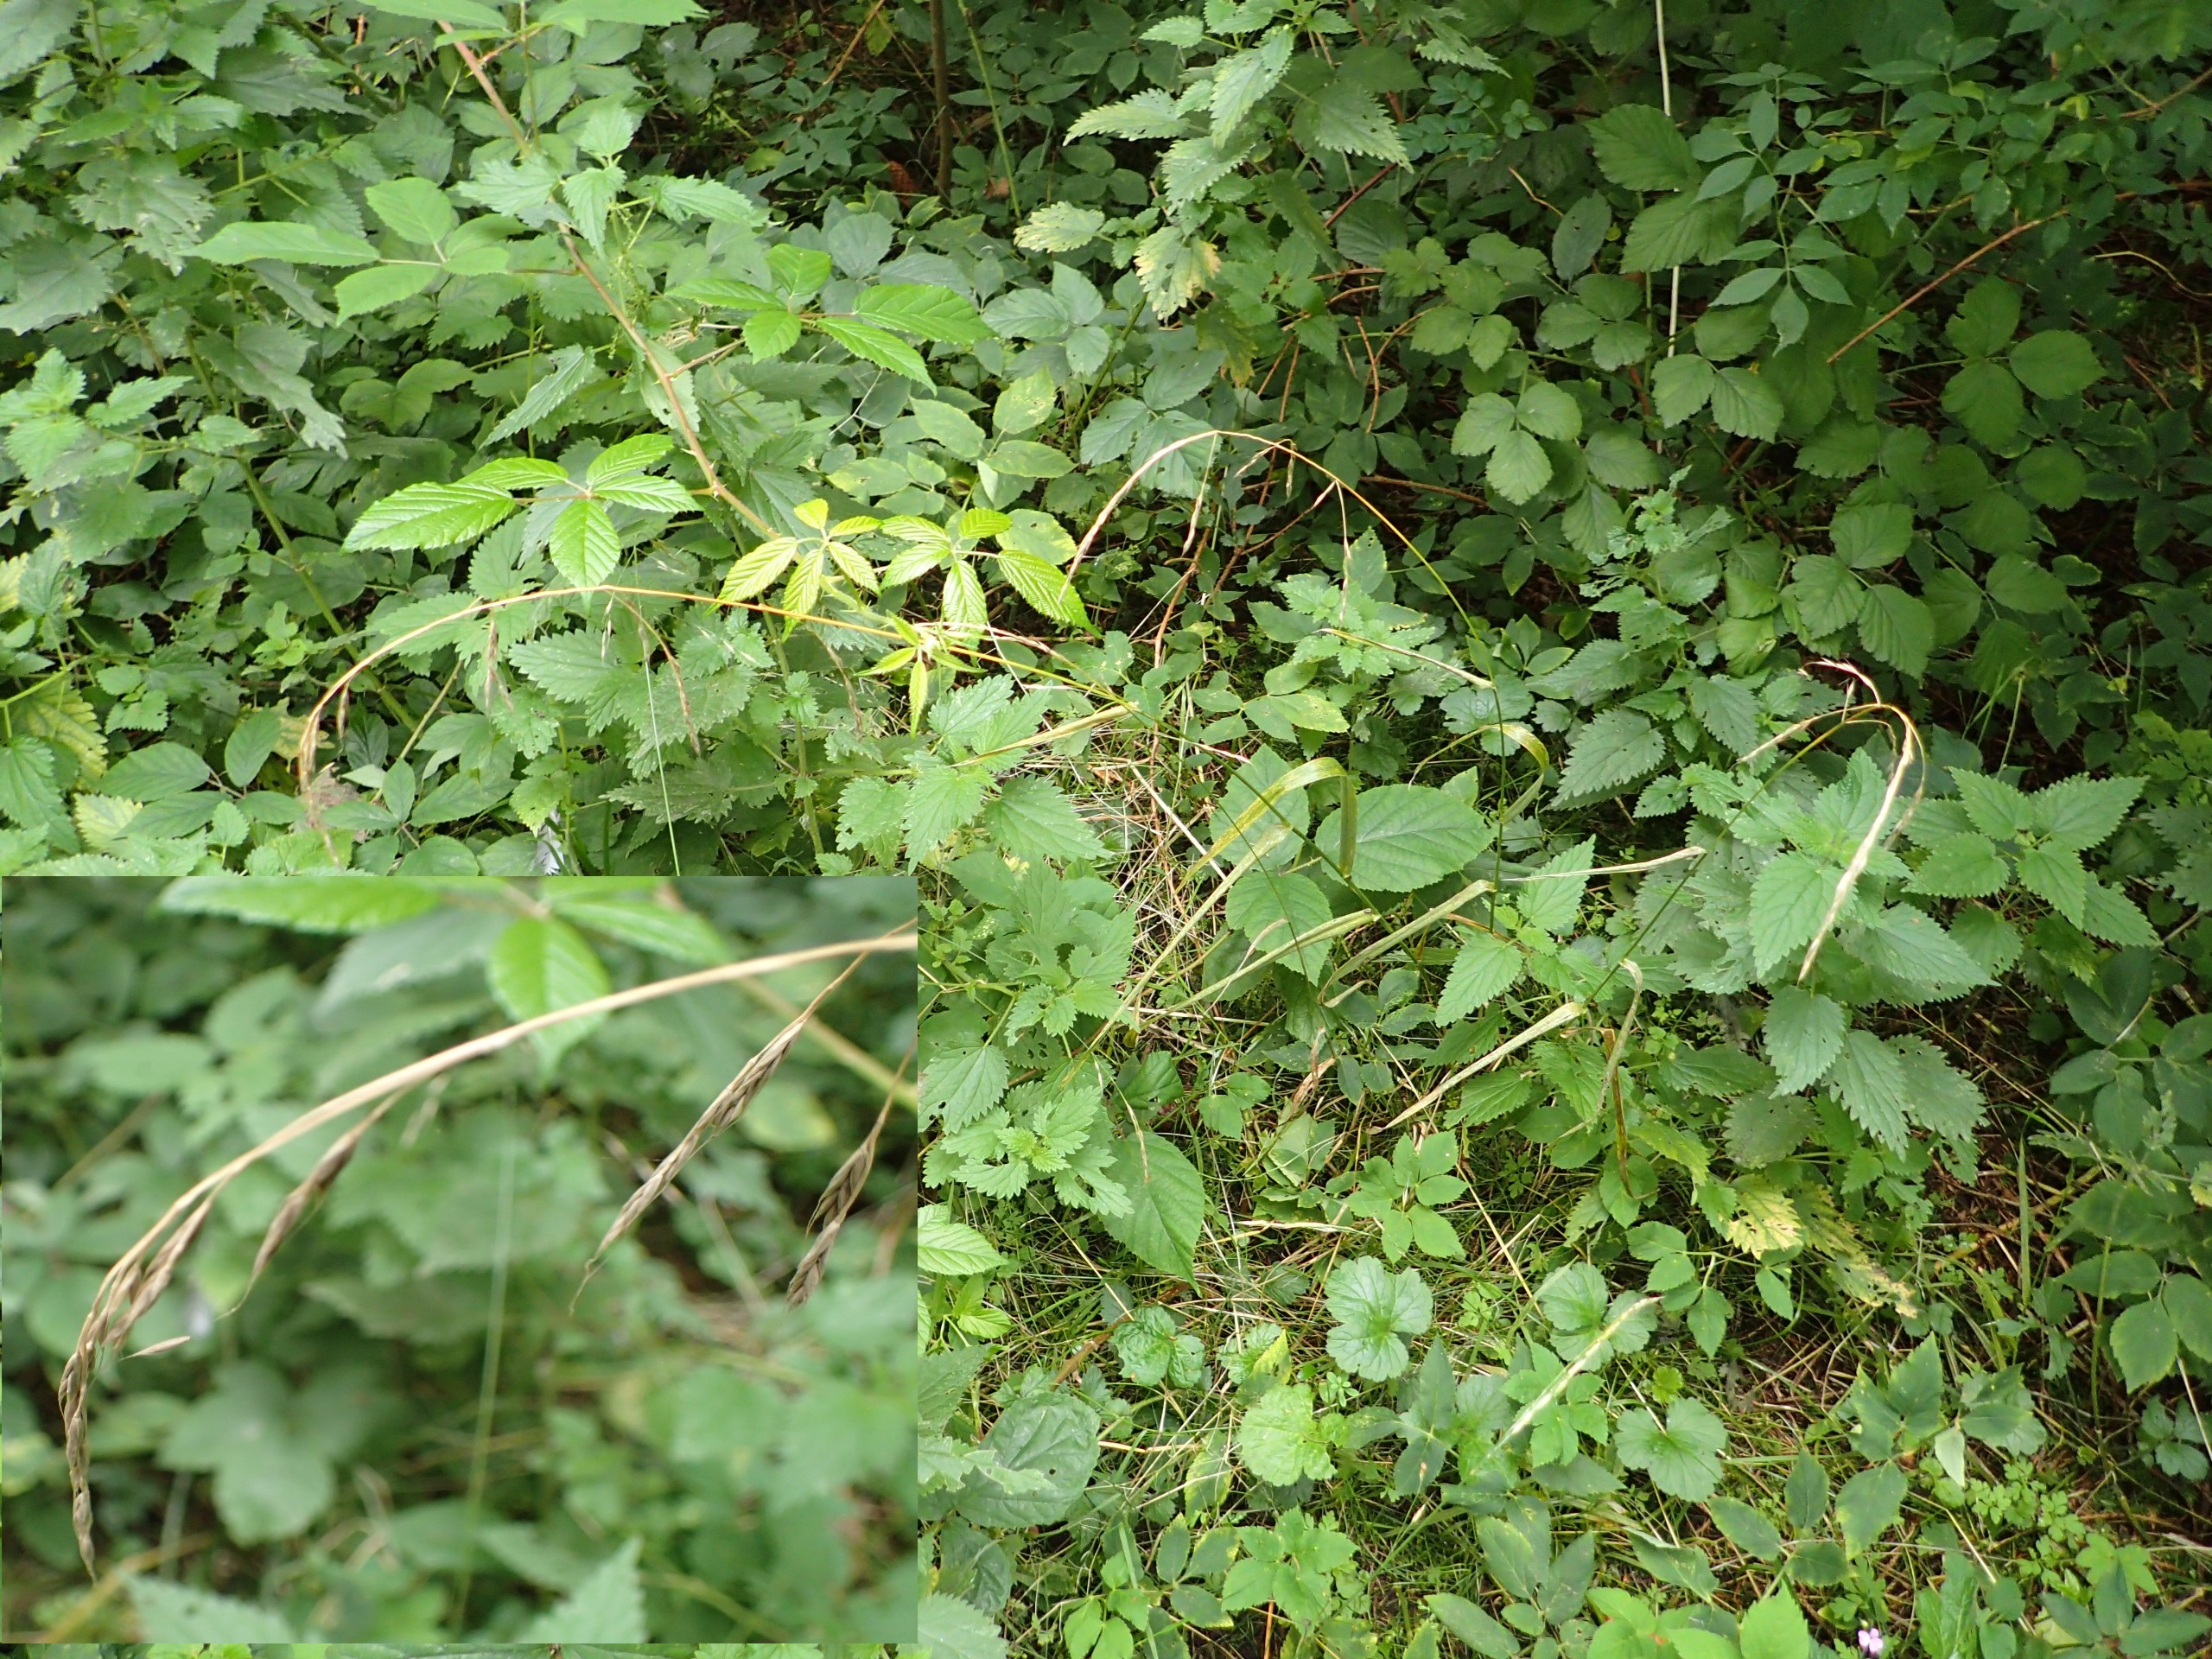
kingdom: Plantae
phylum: Tracheophyta
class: Liliopsida
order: Poales
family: Poaceae
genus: Lolium
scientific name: Lolium giganteum
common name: Kæmpe-svingel
